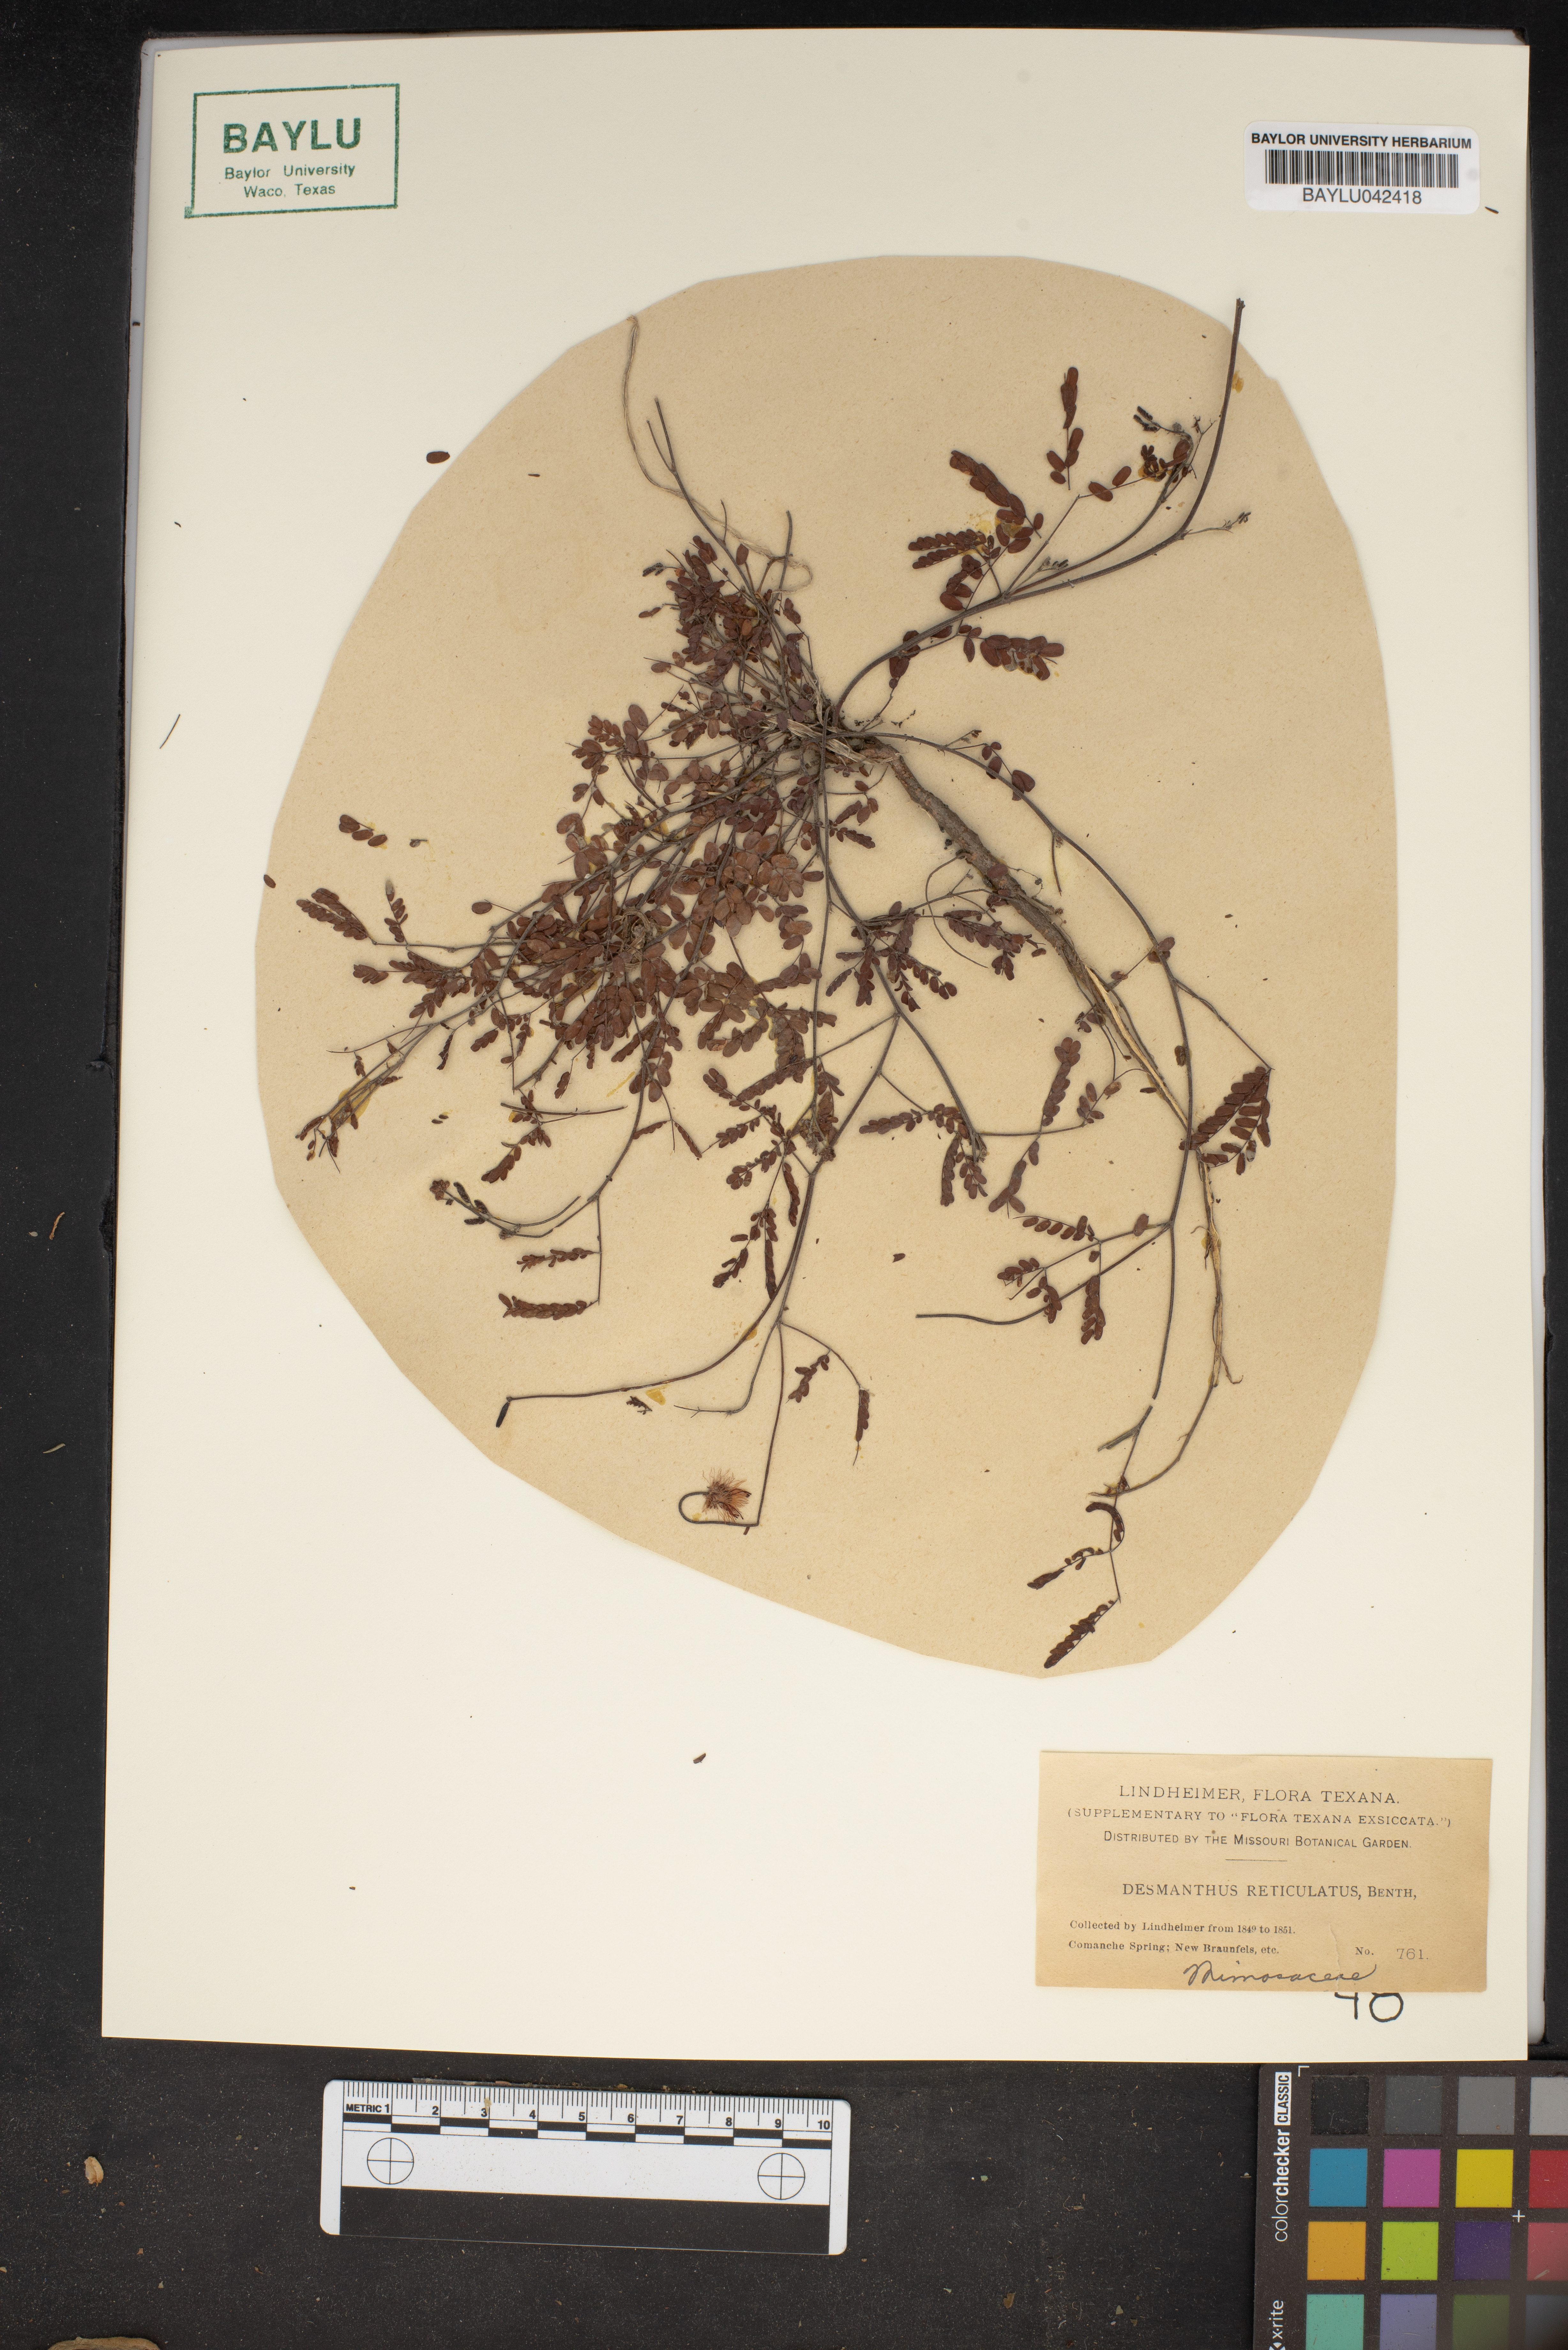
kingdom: Plantae
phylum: Tracheophyta
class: Magnoliopsida
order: Fabales
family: Fabaceae
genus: Desmanthus
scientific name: Desmanthus reticulatus
